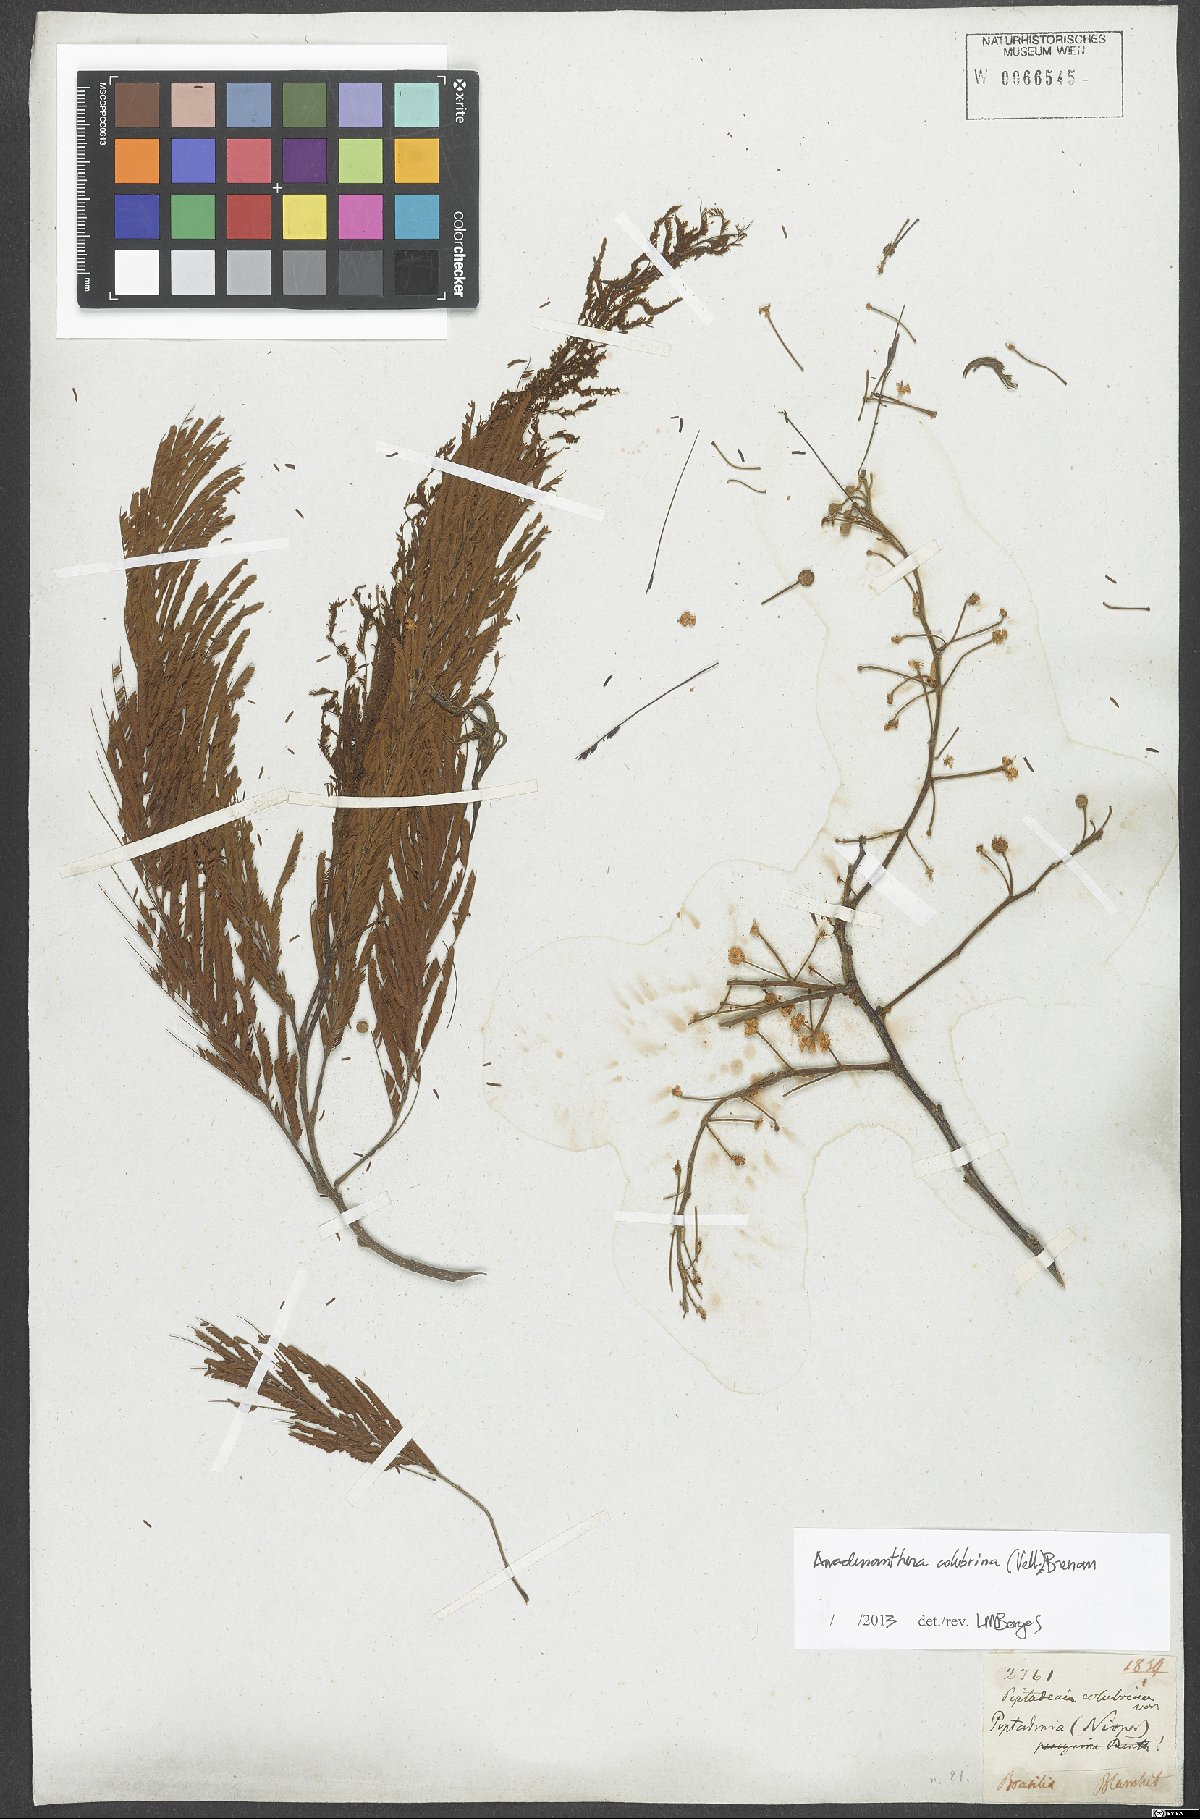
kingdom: Plantae
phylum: Tracheophyta
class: Magnoliopsida
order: Fabales
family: Fabaceae
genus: Anadenanthera
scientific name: Anadenanthera colubrina
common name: Curupay
